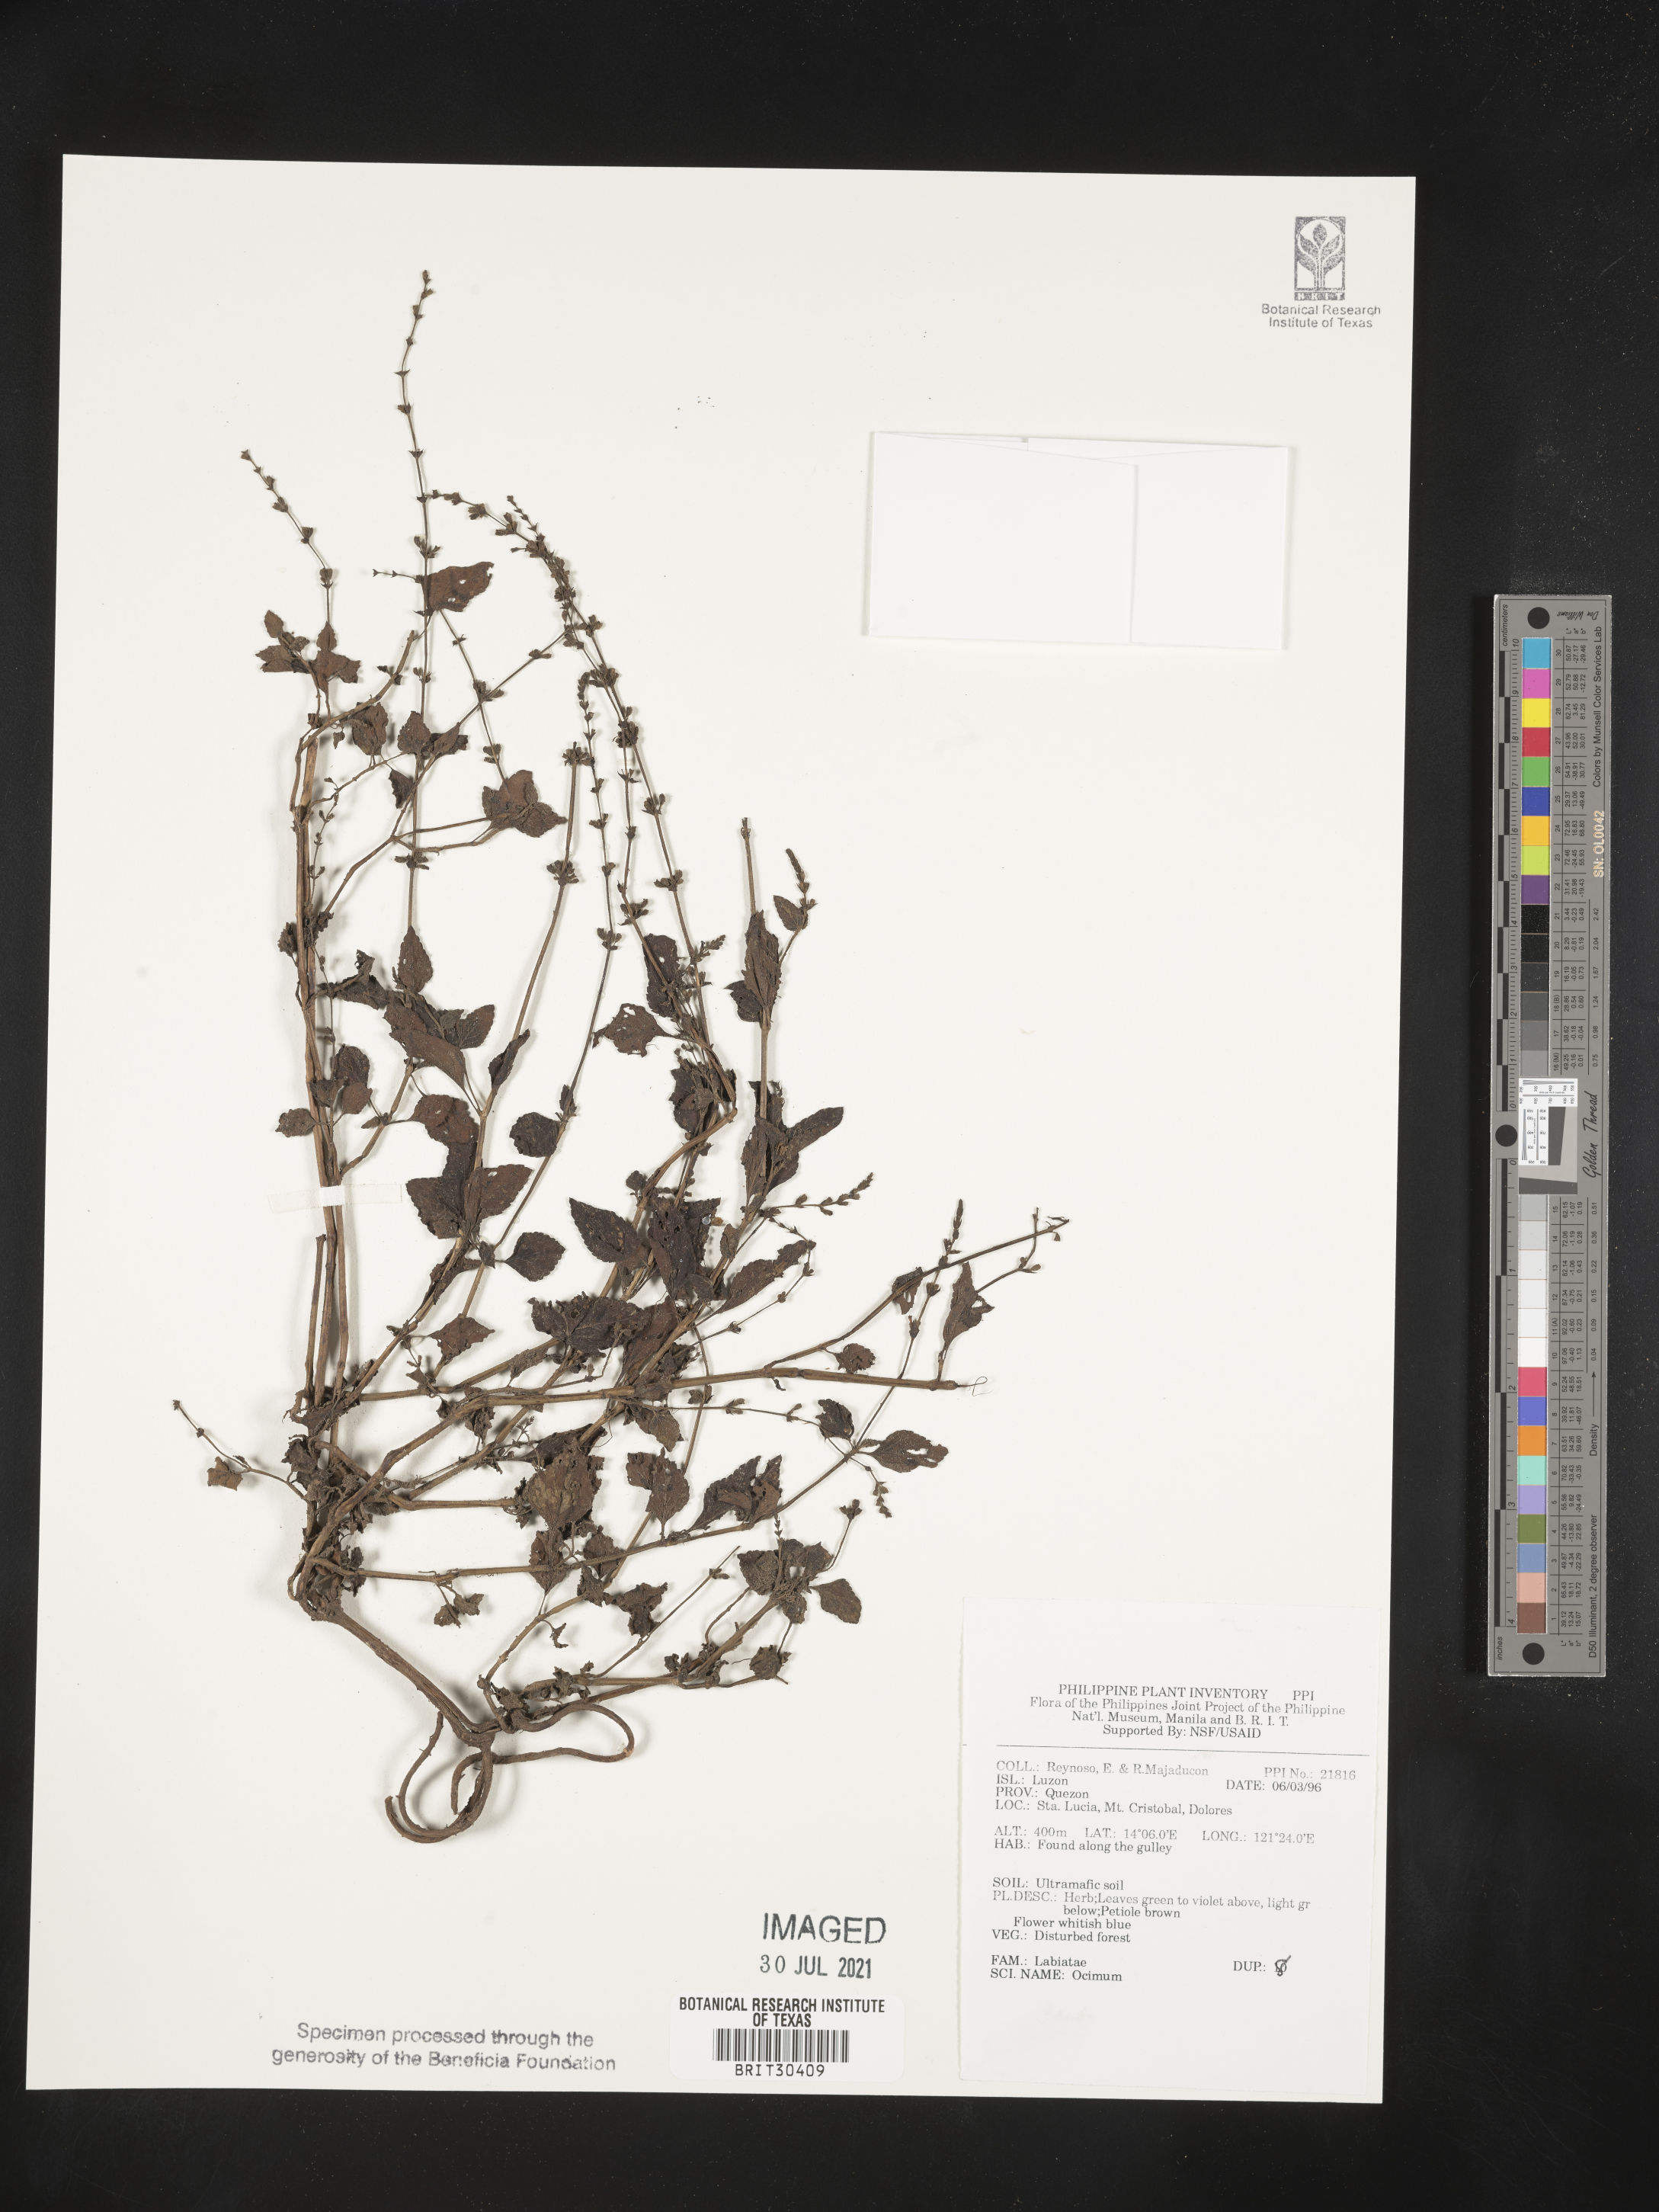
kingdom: Plantae
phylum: Tracheophyta
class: Magnoliopsida
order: Lamiales
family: Lamiaceae
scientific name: Lamiaceae
